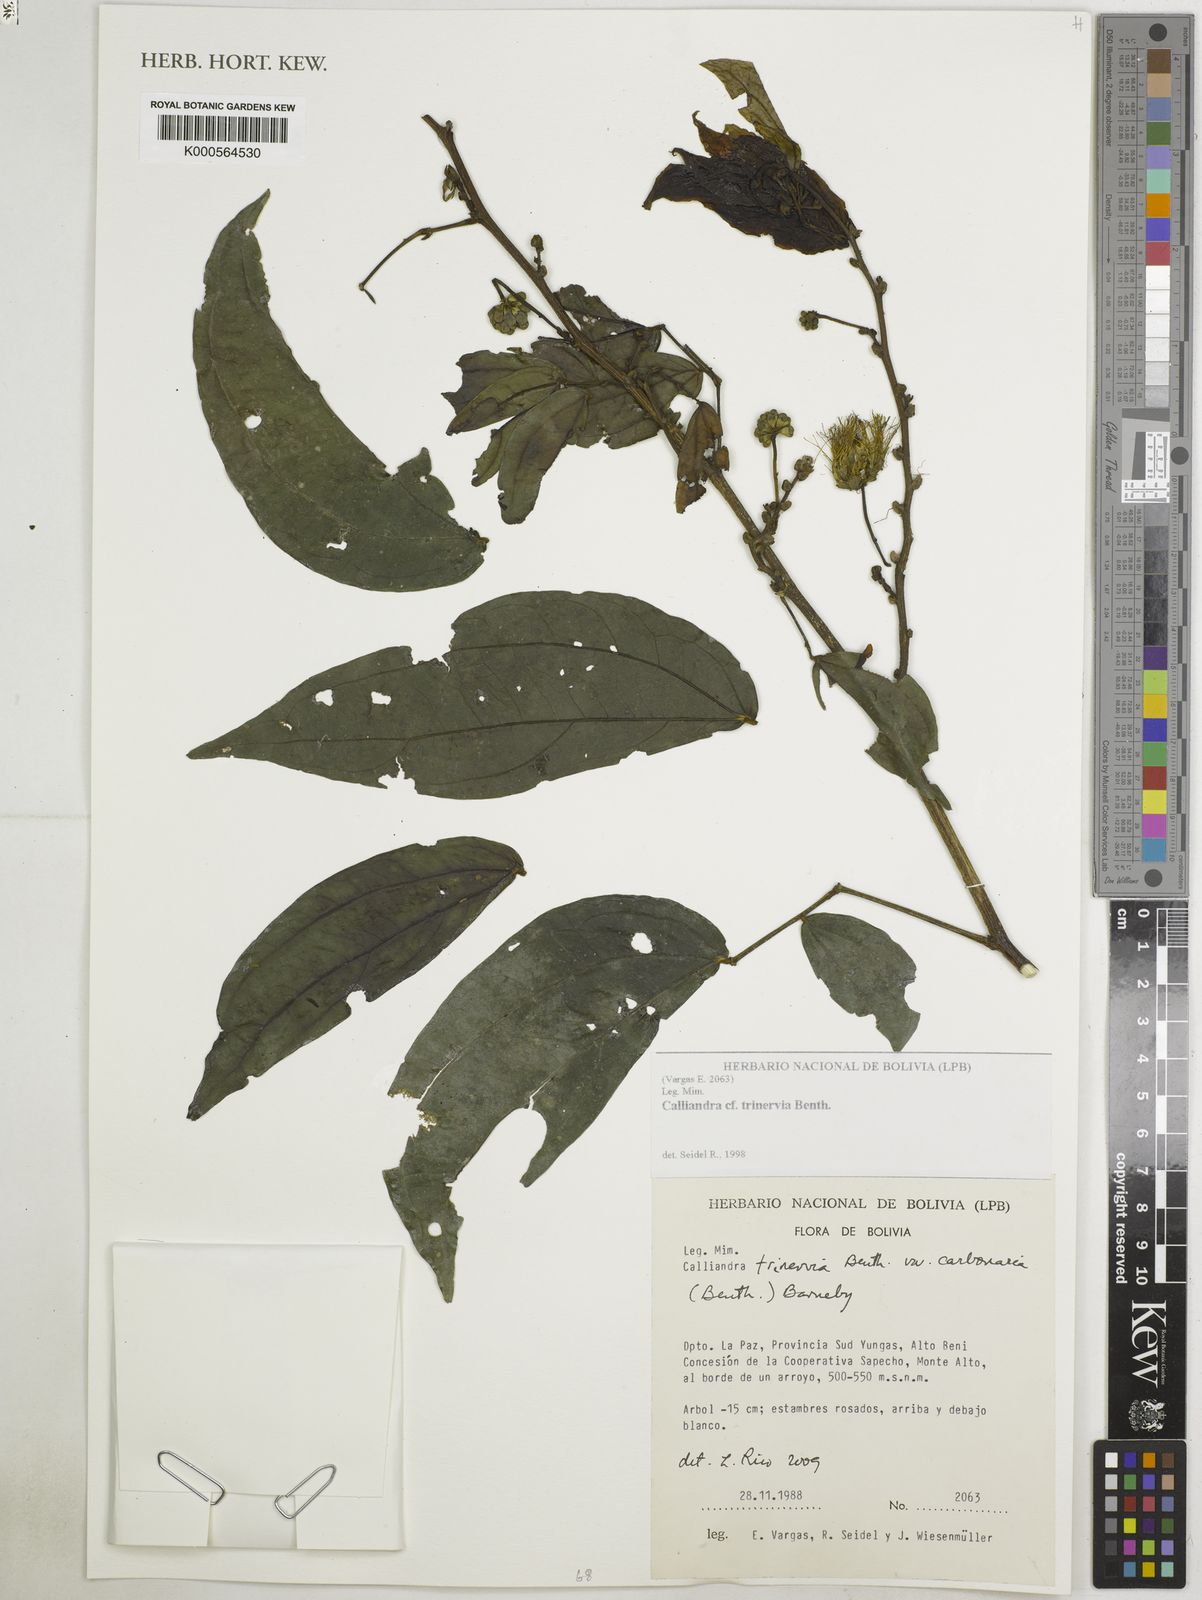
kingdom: Plantae
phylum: Tracheophyta
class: Magnoliopsida
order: Fabales
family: Fabaceae
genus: Calliandra
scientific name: Calliandra trinervia
